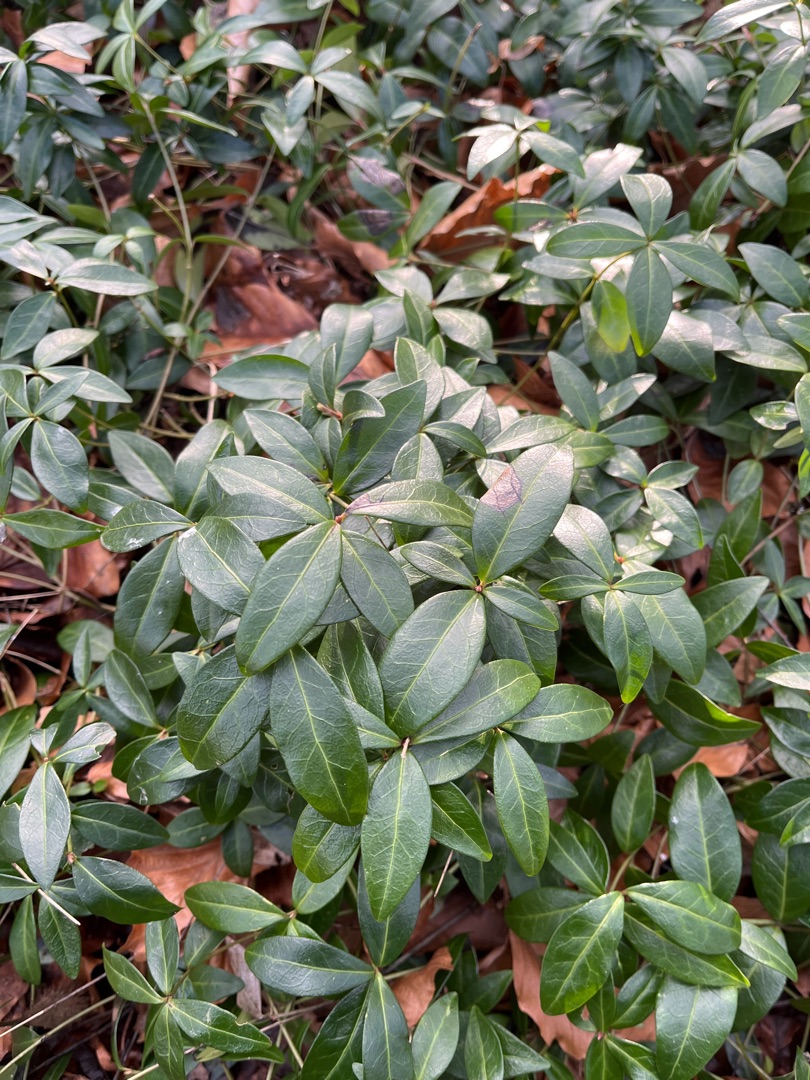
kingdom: Plantae
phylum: Tracheophyta
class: Magnoliopsida
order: Gentianales
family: Apocynaceae
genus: Vinca
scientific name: Vinca minor
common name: Liden singrøn
